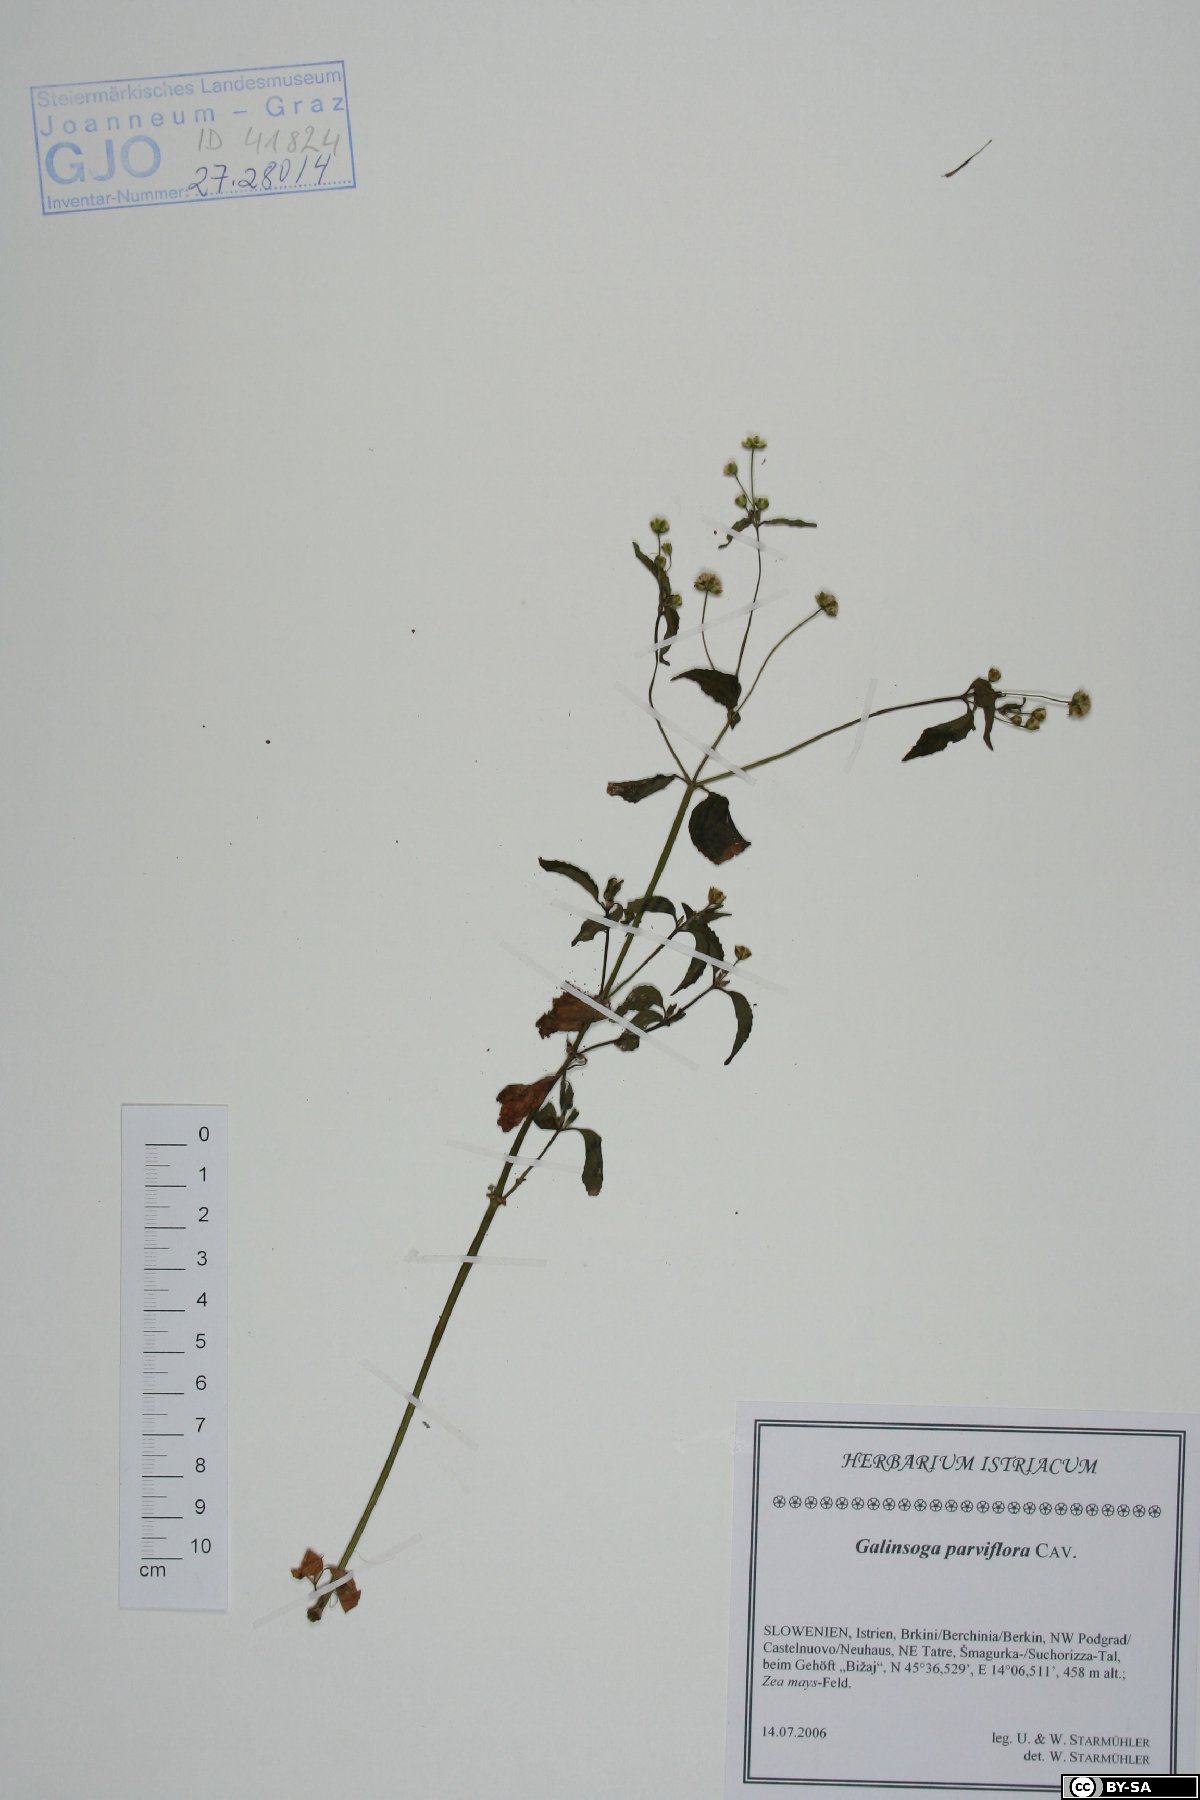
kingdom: Plantae
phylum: Tracheophyta
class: Magnoliopsida
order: Asterales
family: Asteraceae
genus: Galinsoga
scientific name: Galinsoga parviflora
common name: Gallant soldier
